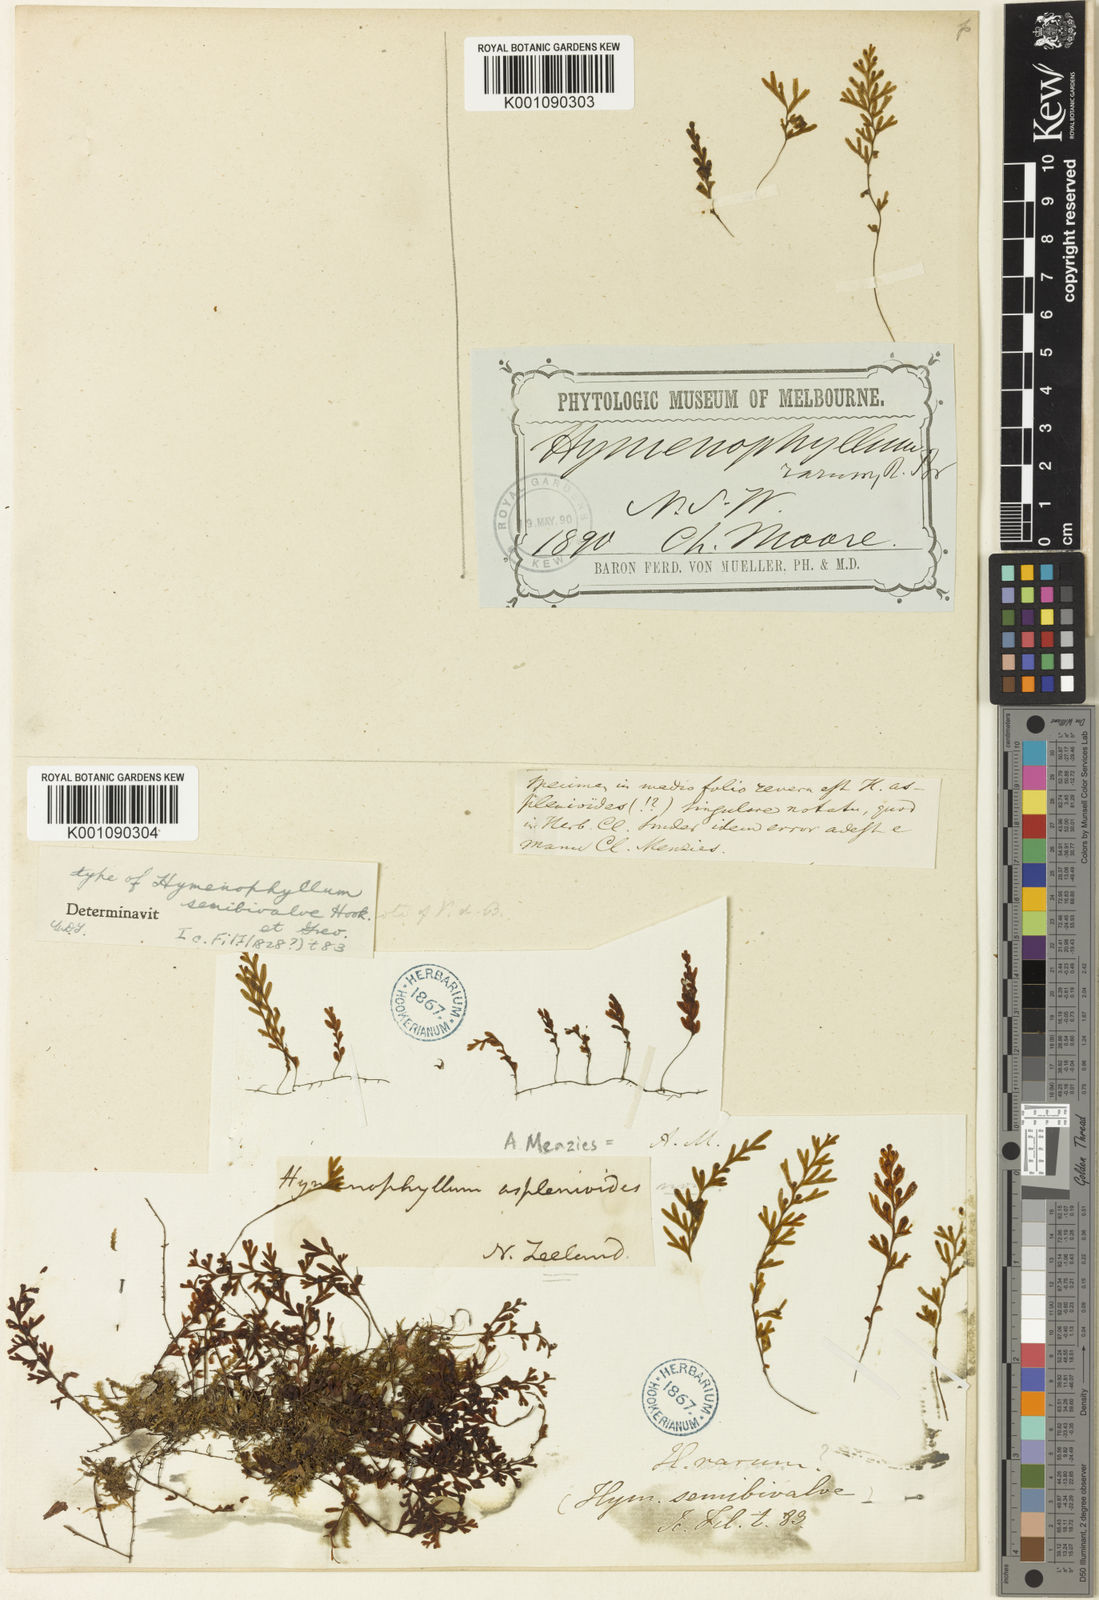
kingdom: Plantae
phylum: Tracheophyta
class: Polypodiopsida
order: Hymenophyllales
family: Hymenophyllaceae
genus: Hymenophyllum
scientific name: Hymenophyllum rarum
